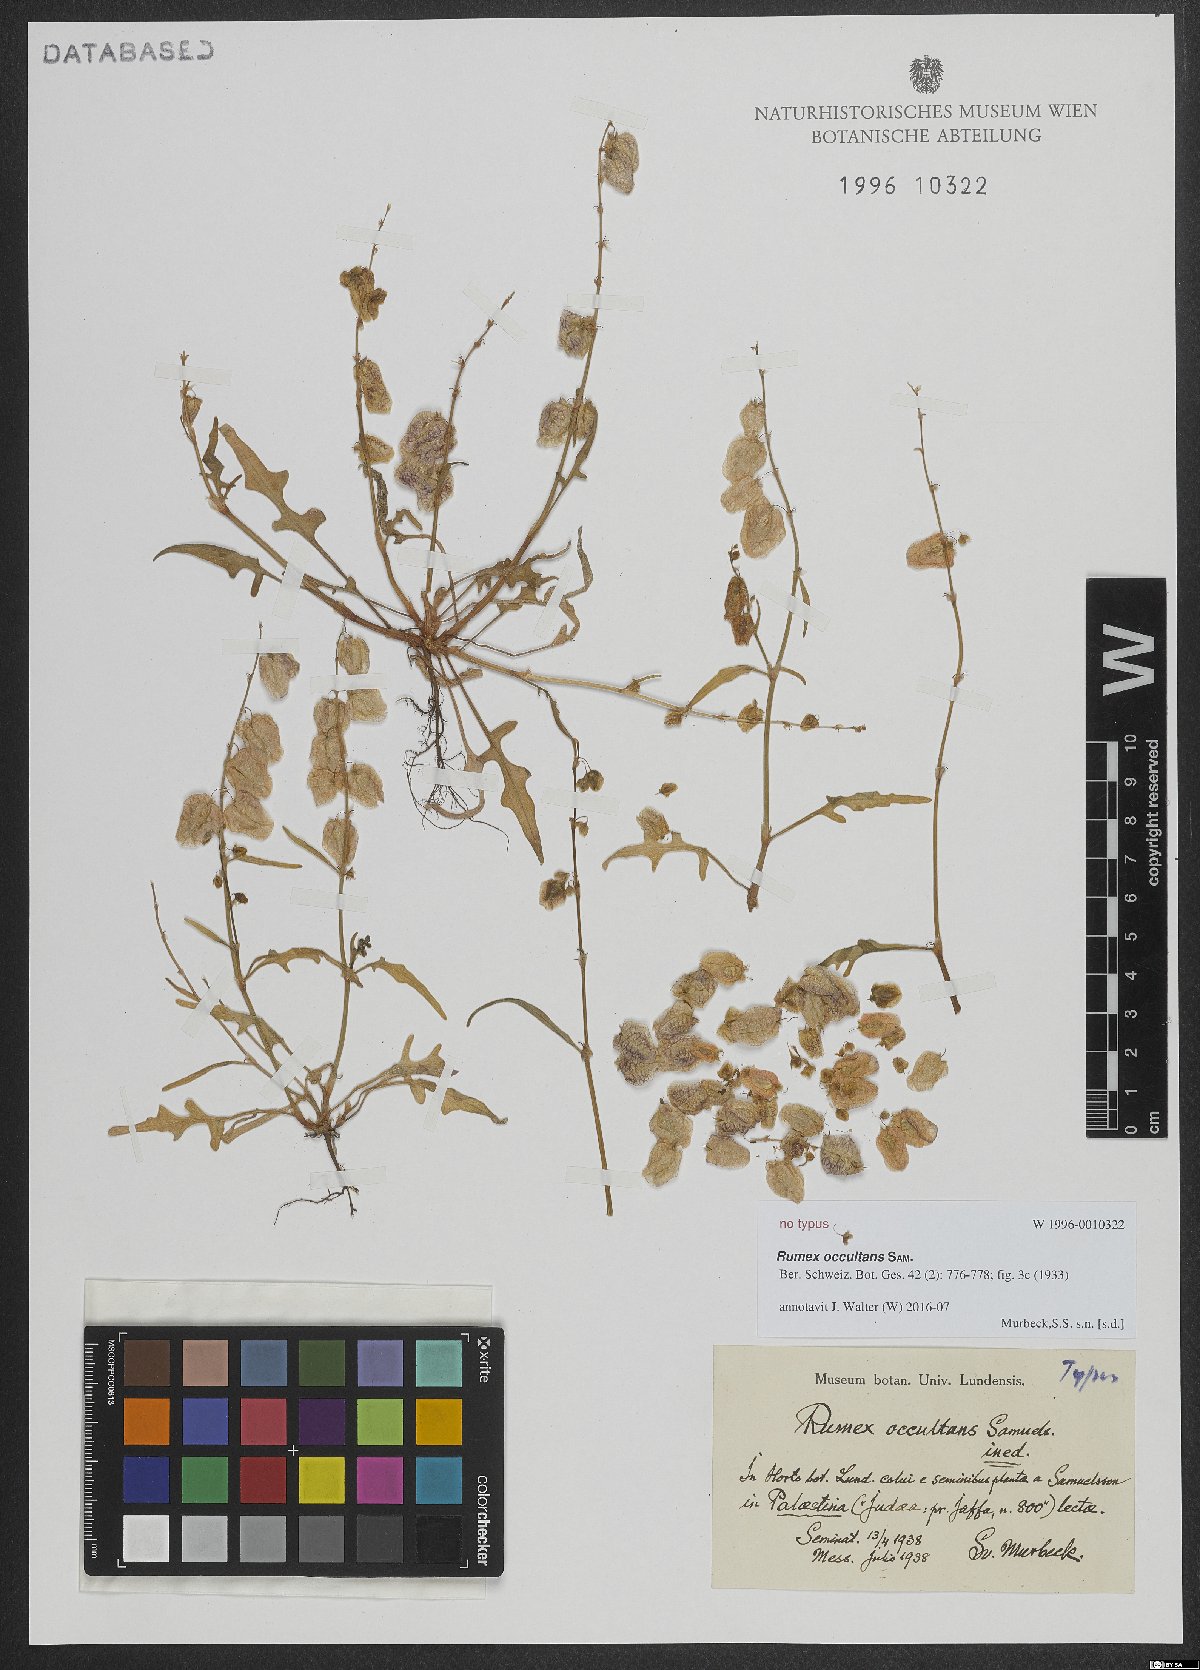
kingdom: Plantae
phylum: Tracheophyta
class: Magnoliopsida
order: Caryophyllales
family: Polygonaceae
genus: Rumex
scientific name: Rumex occultans
